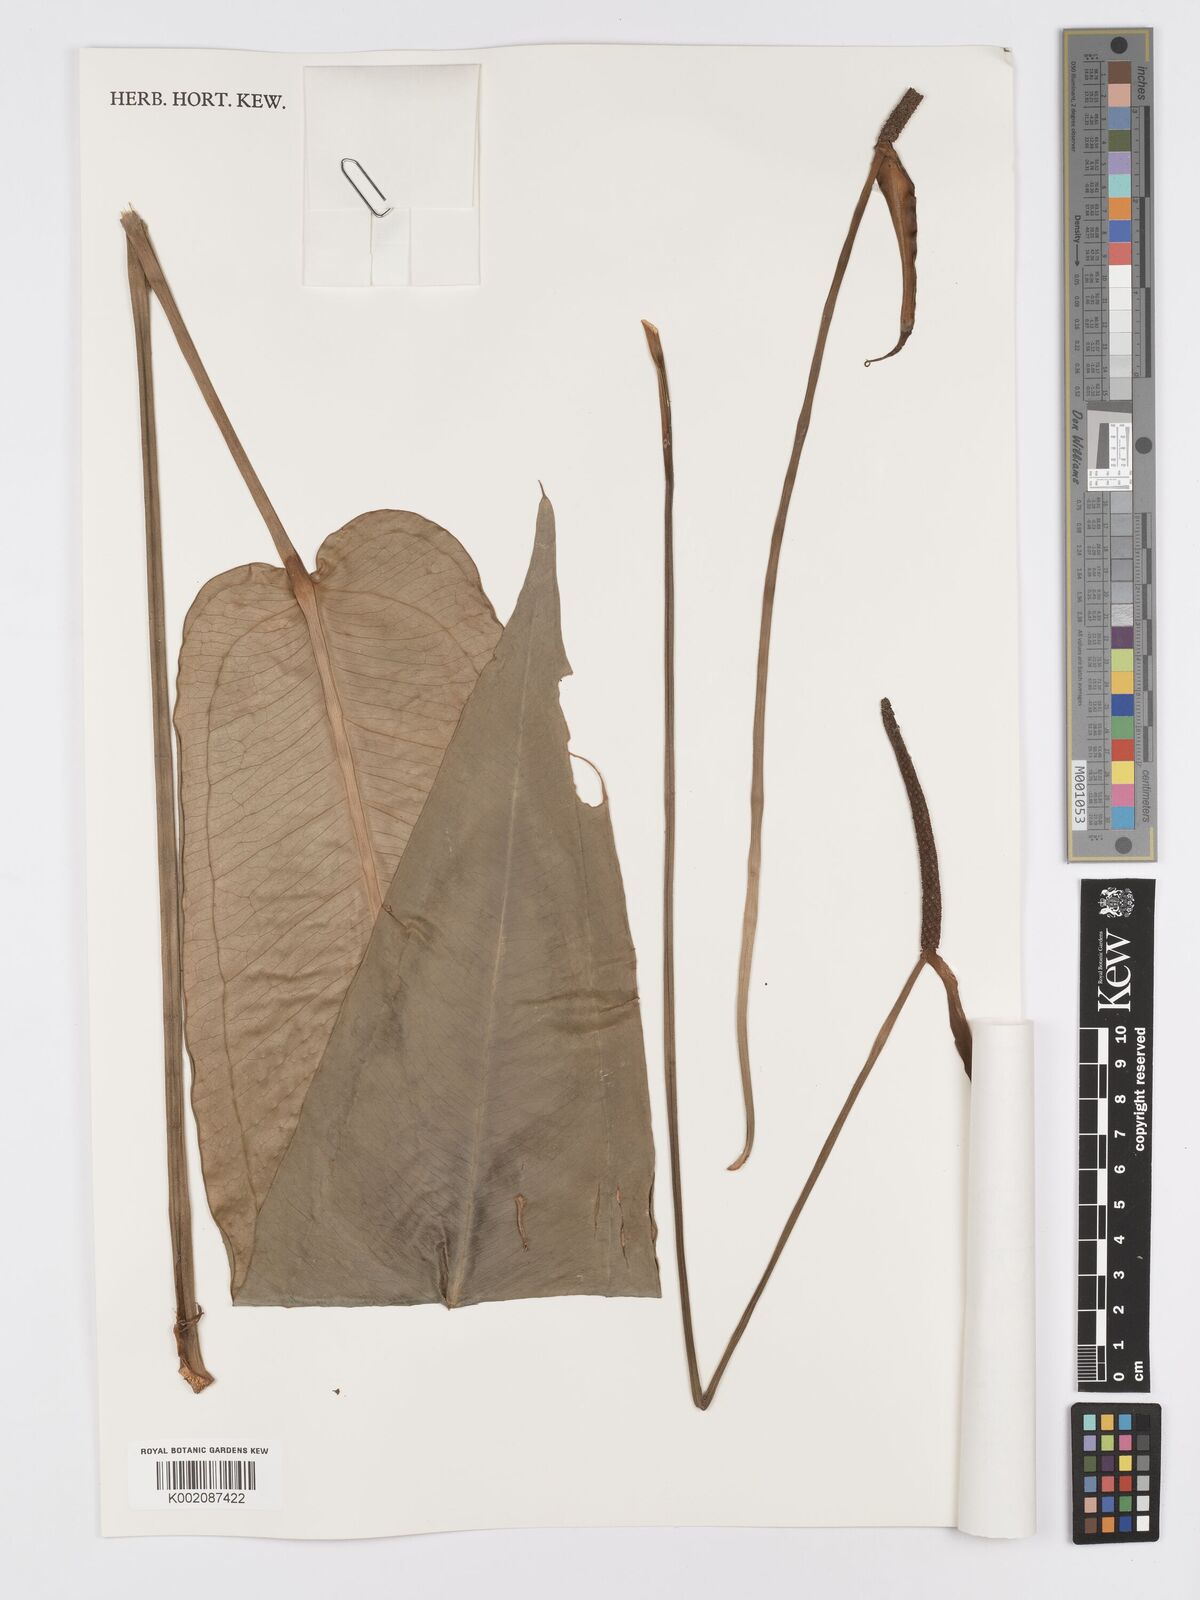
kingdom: Plantae
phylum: Tracheophyta
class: Liliopsida
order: Alismatales
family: Araceae
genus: Anthurium
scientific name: Anthurium
